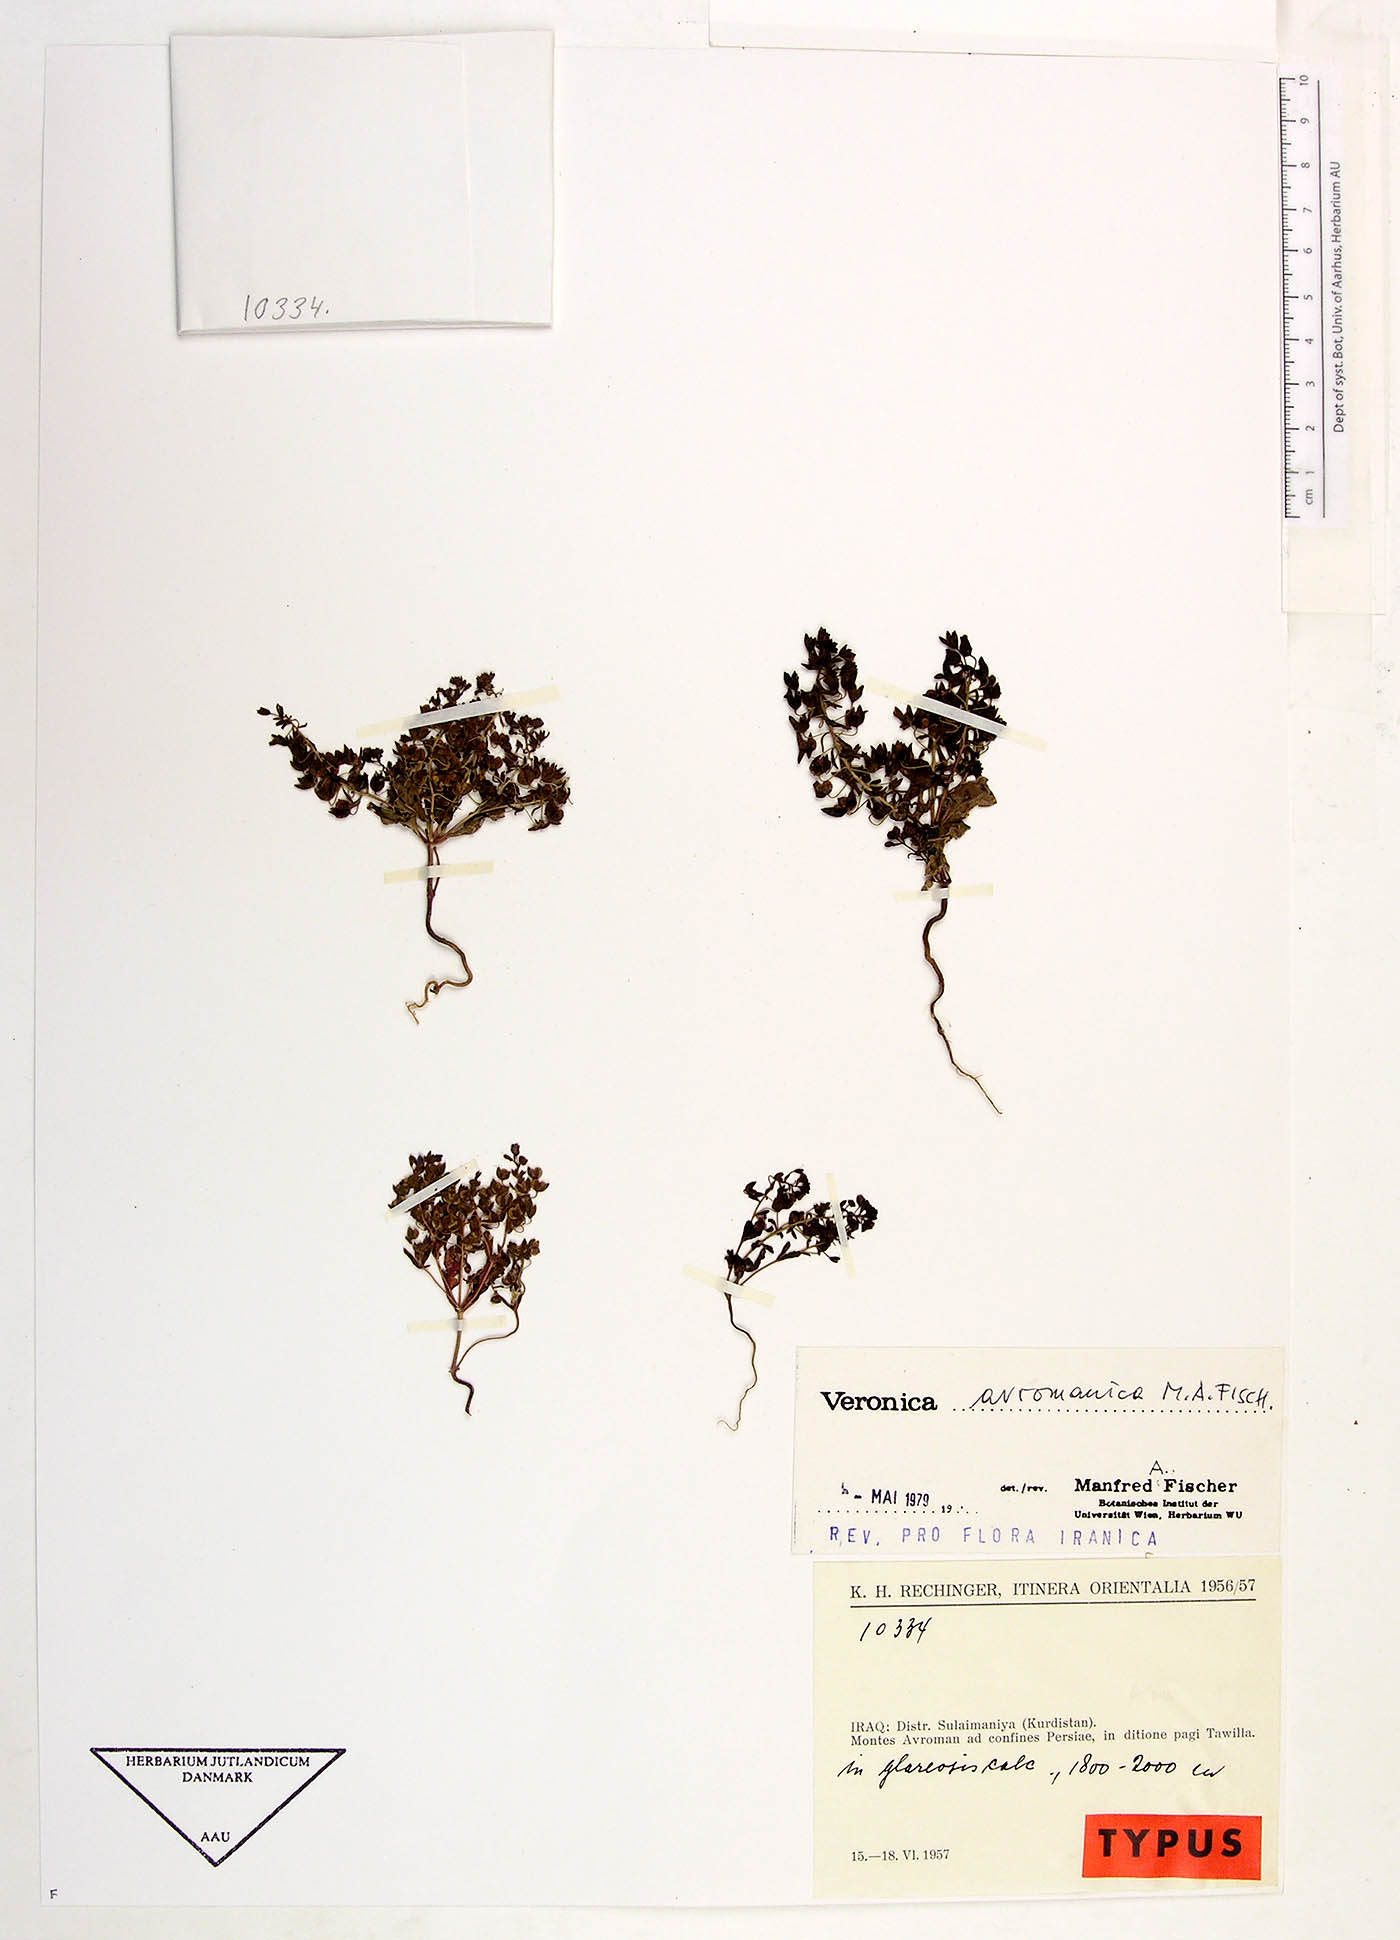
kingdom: Plantae
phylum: Tracheophyta
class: Magnoliopsida
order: Lamiales
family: Plantaginaceae
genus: Veronica
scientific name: Veronica avromanica
